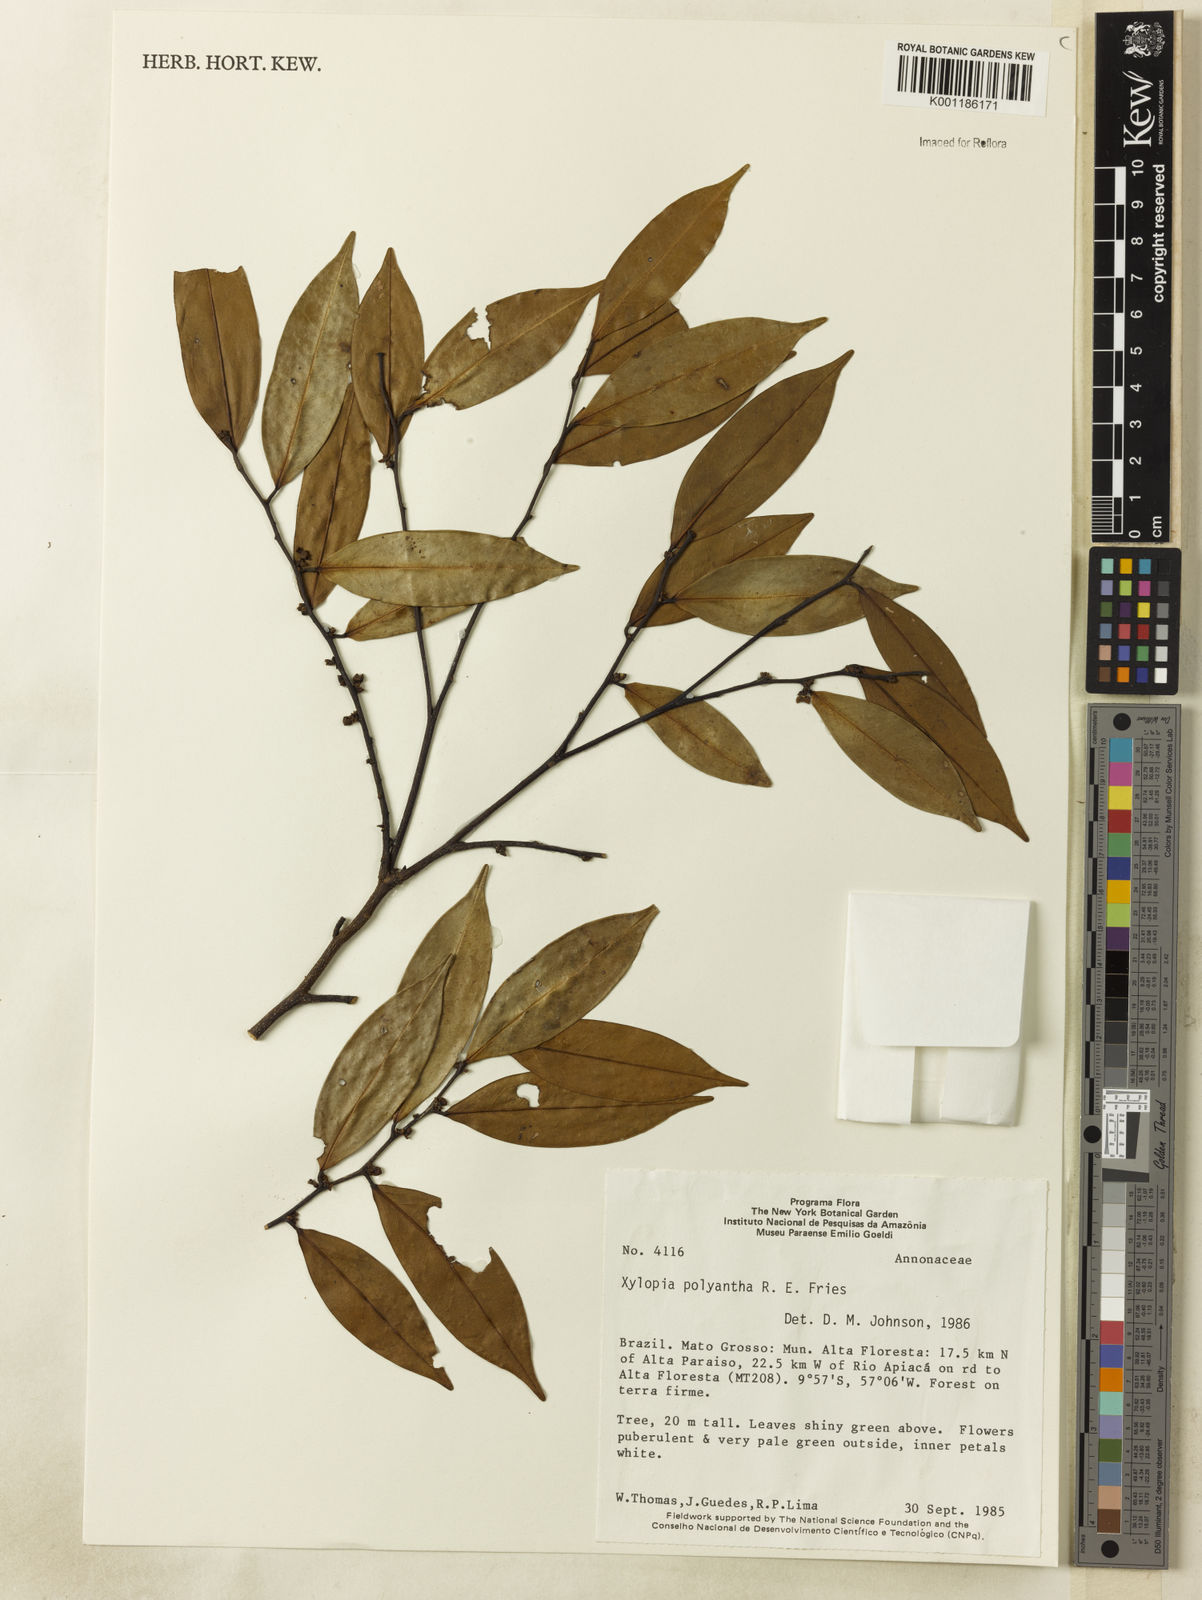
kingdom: Plantae
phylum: Tracheophyta
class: Magnoliopsida
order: Magnoliales
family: Annonaceae
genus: Xylopia
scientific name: Xylopia polyantha
